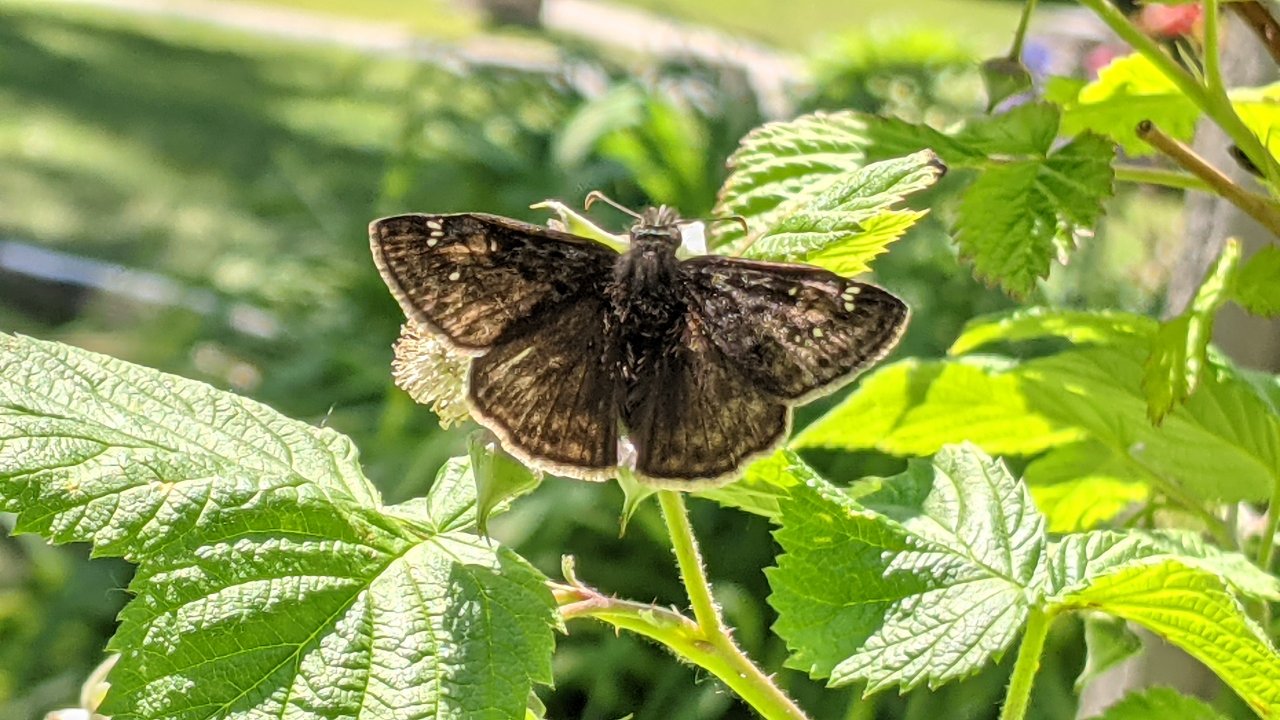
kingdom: Animalia
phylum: Arthropoda
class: Insecta
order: Lepidoptera
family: Hesperiidae
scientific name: Hesperiidae
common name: Skippers
